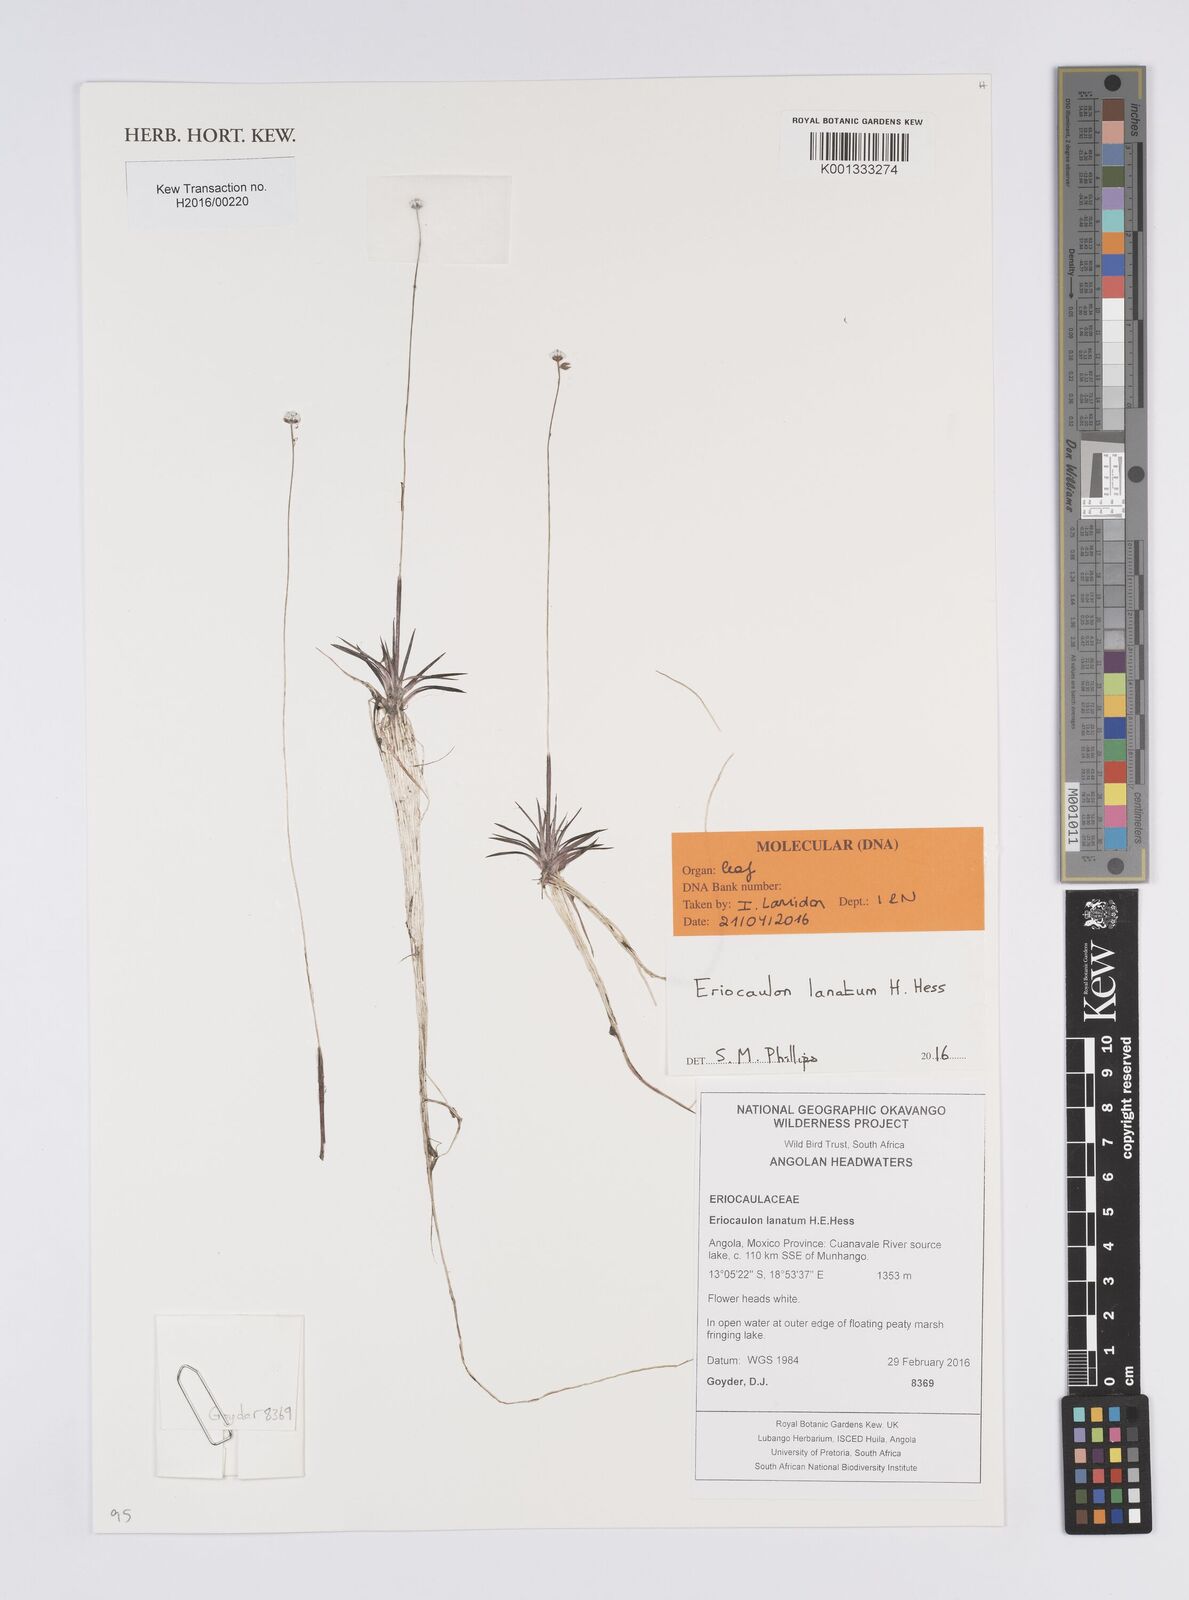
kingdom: Plantae
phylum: Tracheophyta
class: Liliopsida
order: Poales
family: Eriocaulaceae
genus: Eriocaulon
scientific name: Eriocaulon lanatum
